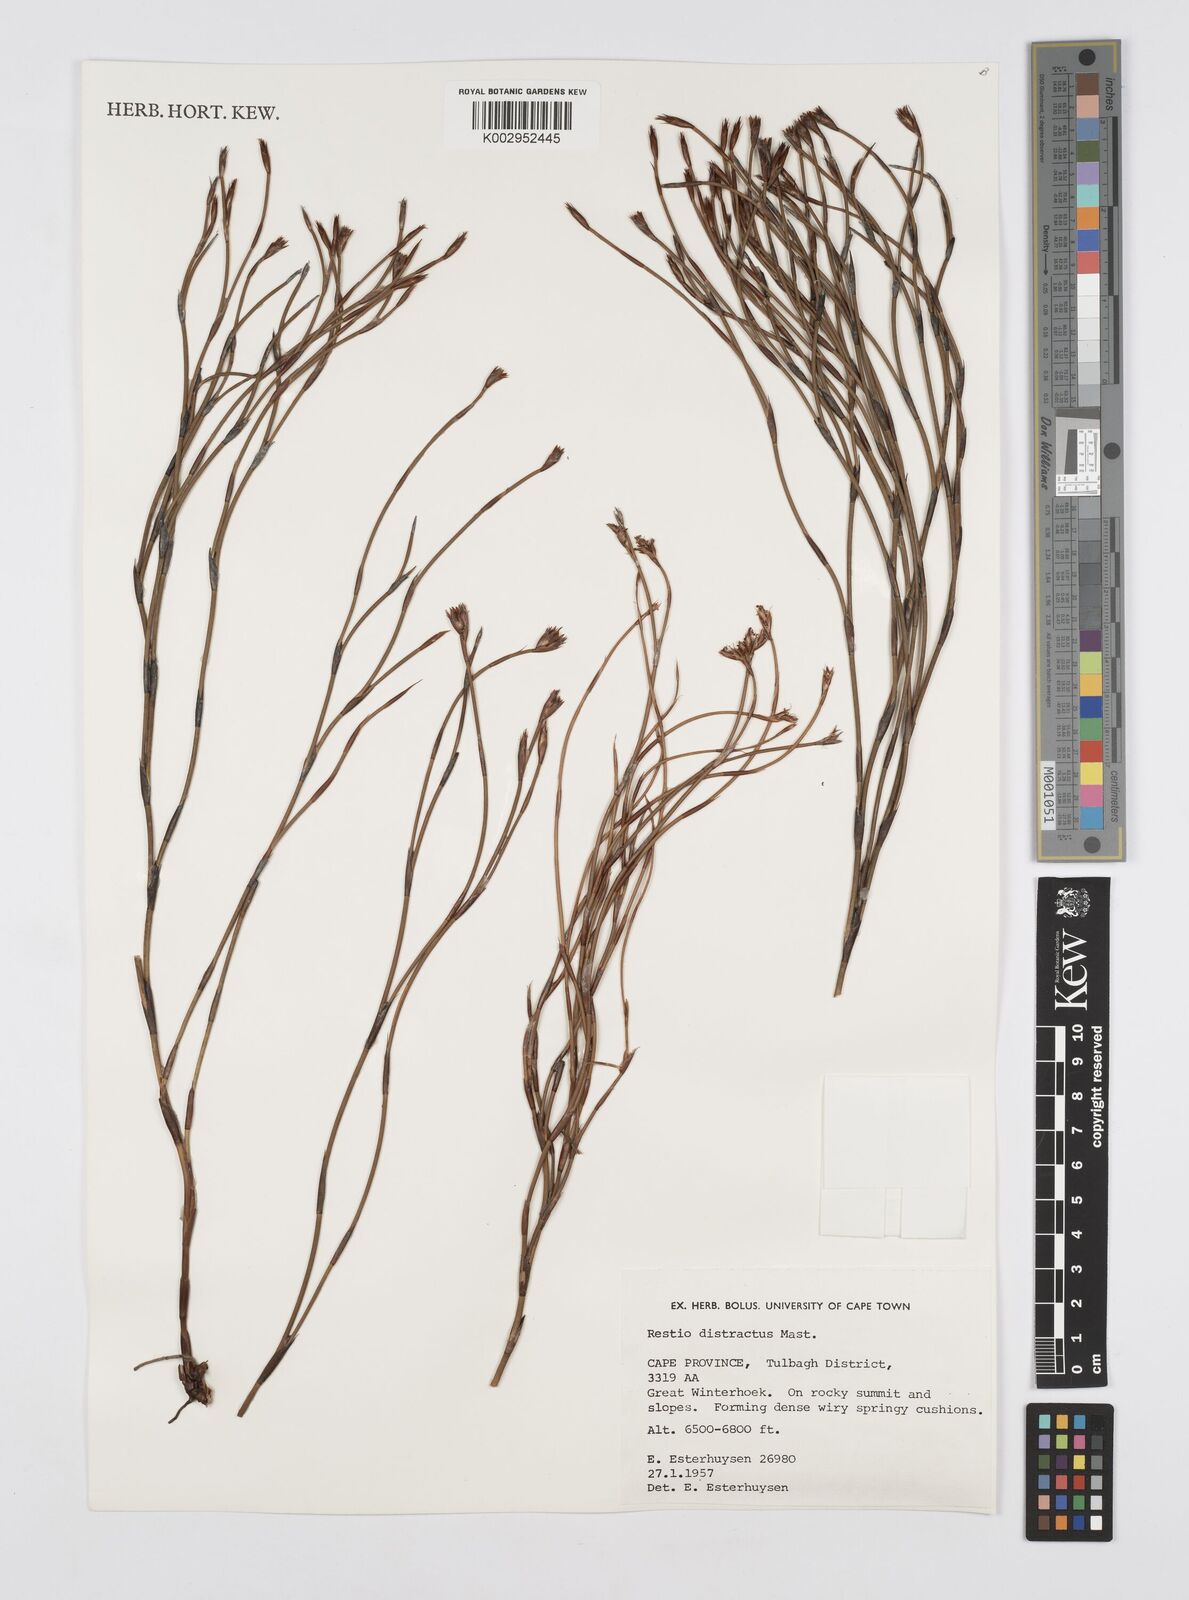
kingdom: Plantae
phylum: Tracheophyta
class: Liliopsida
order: Poales
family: Restionaceae
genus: Restio
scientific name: Restio distractus
